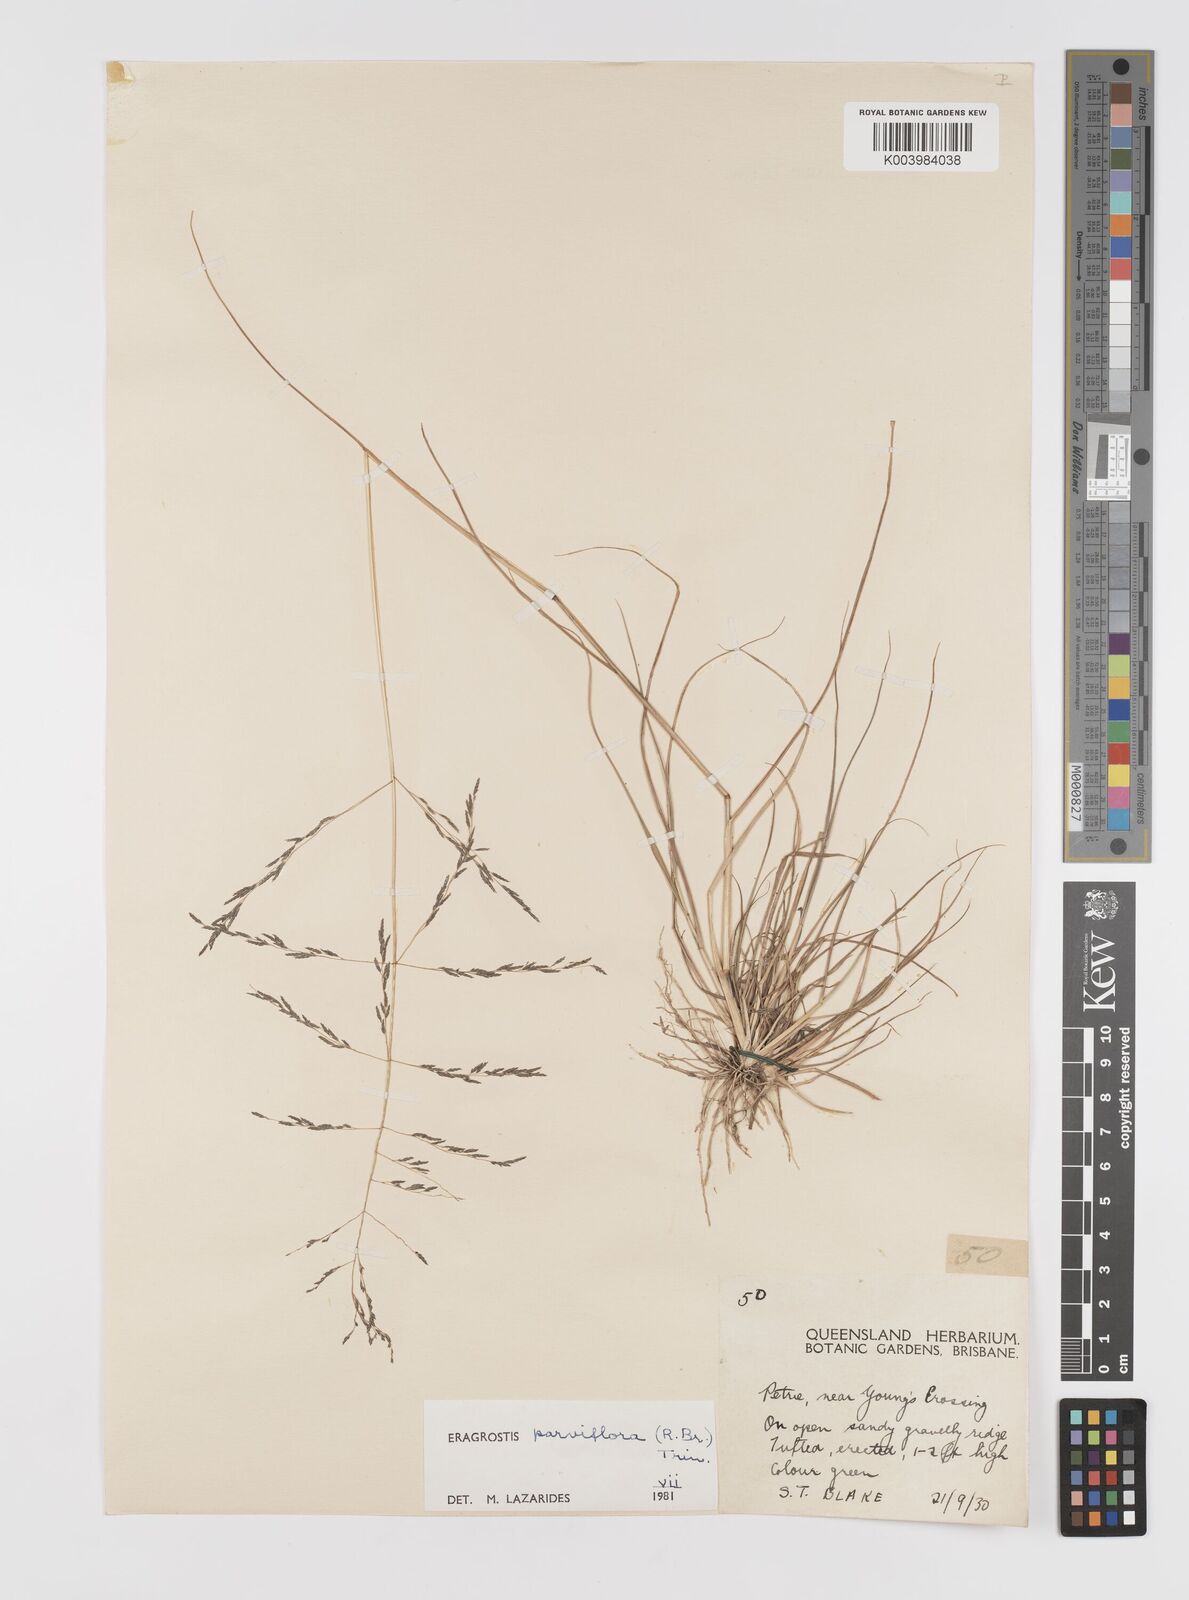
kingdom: Plantae
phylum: Tracheophyta
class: Liliopsida
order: Poales
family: Poaceae
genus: Eragrostis
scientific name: Eragrostis parviflora
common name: Weeping love-grass
